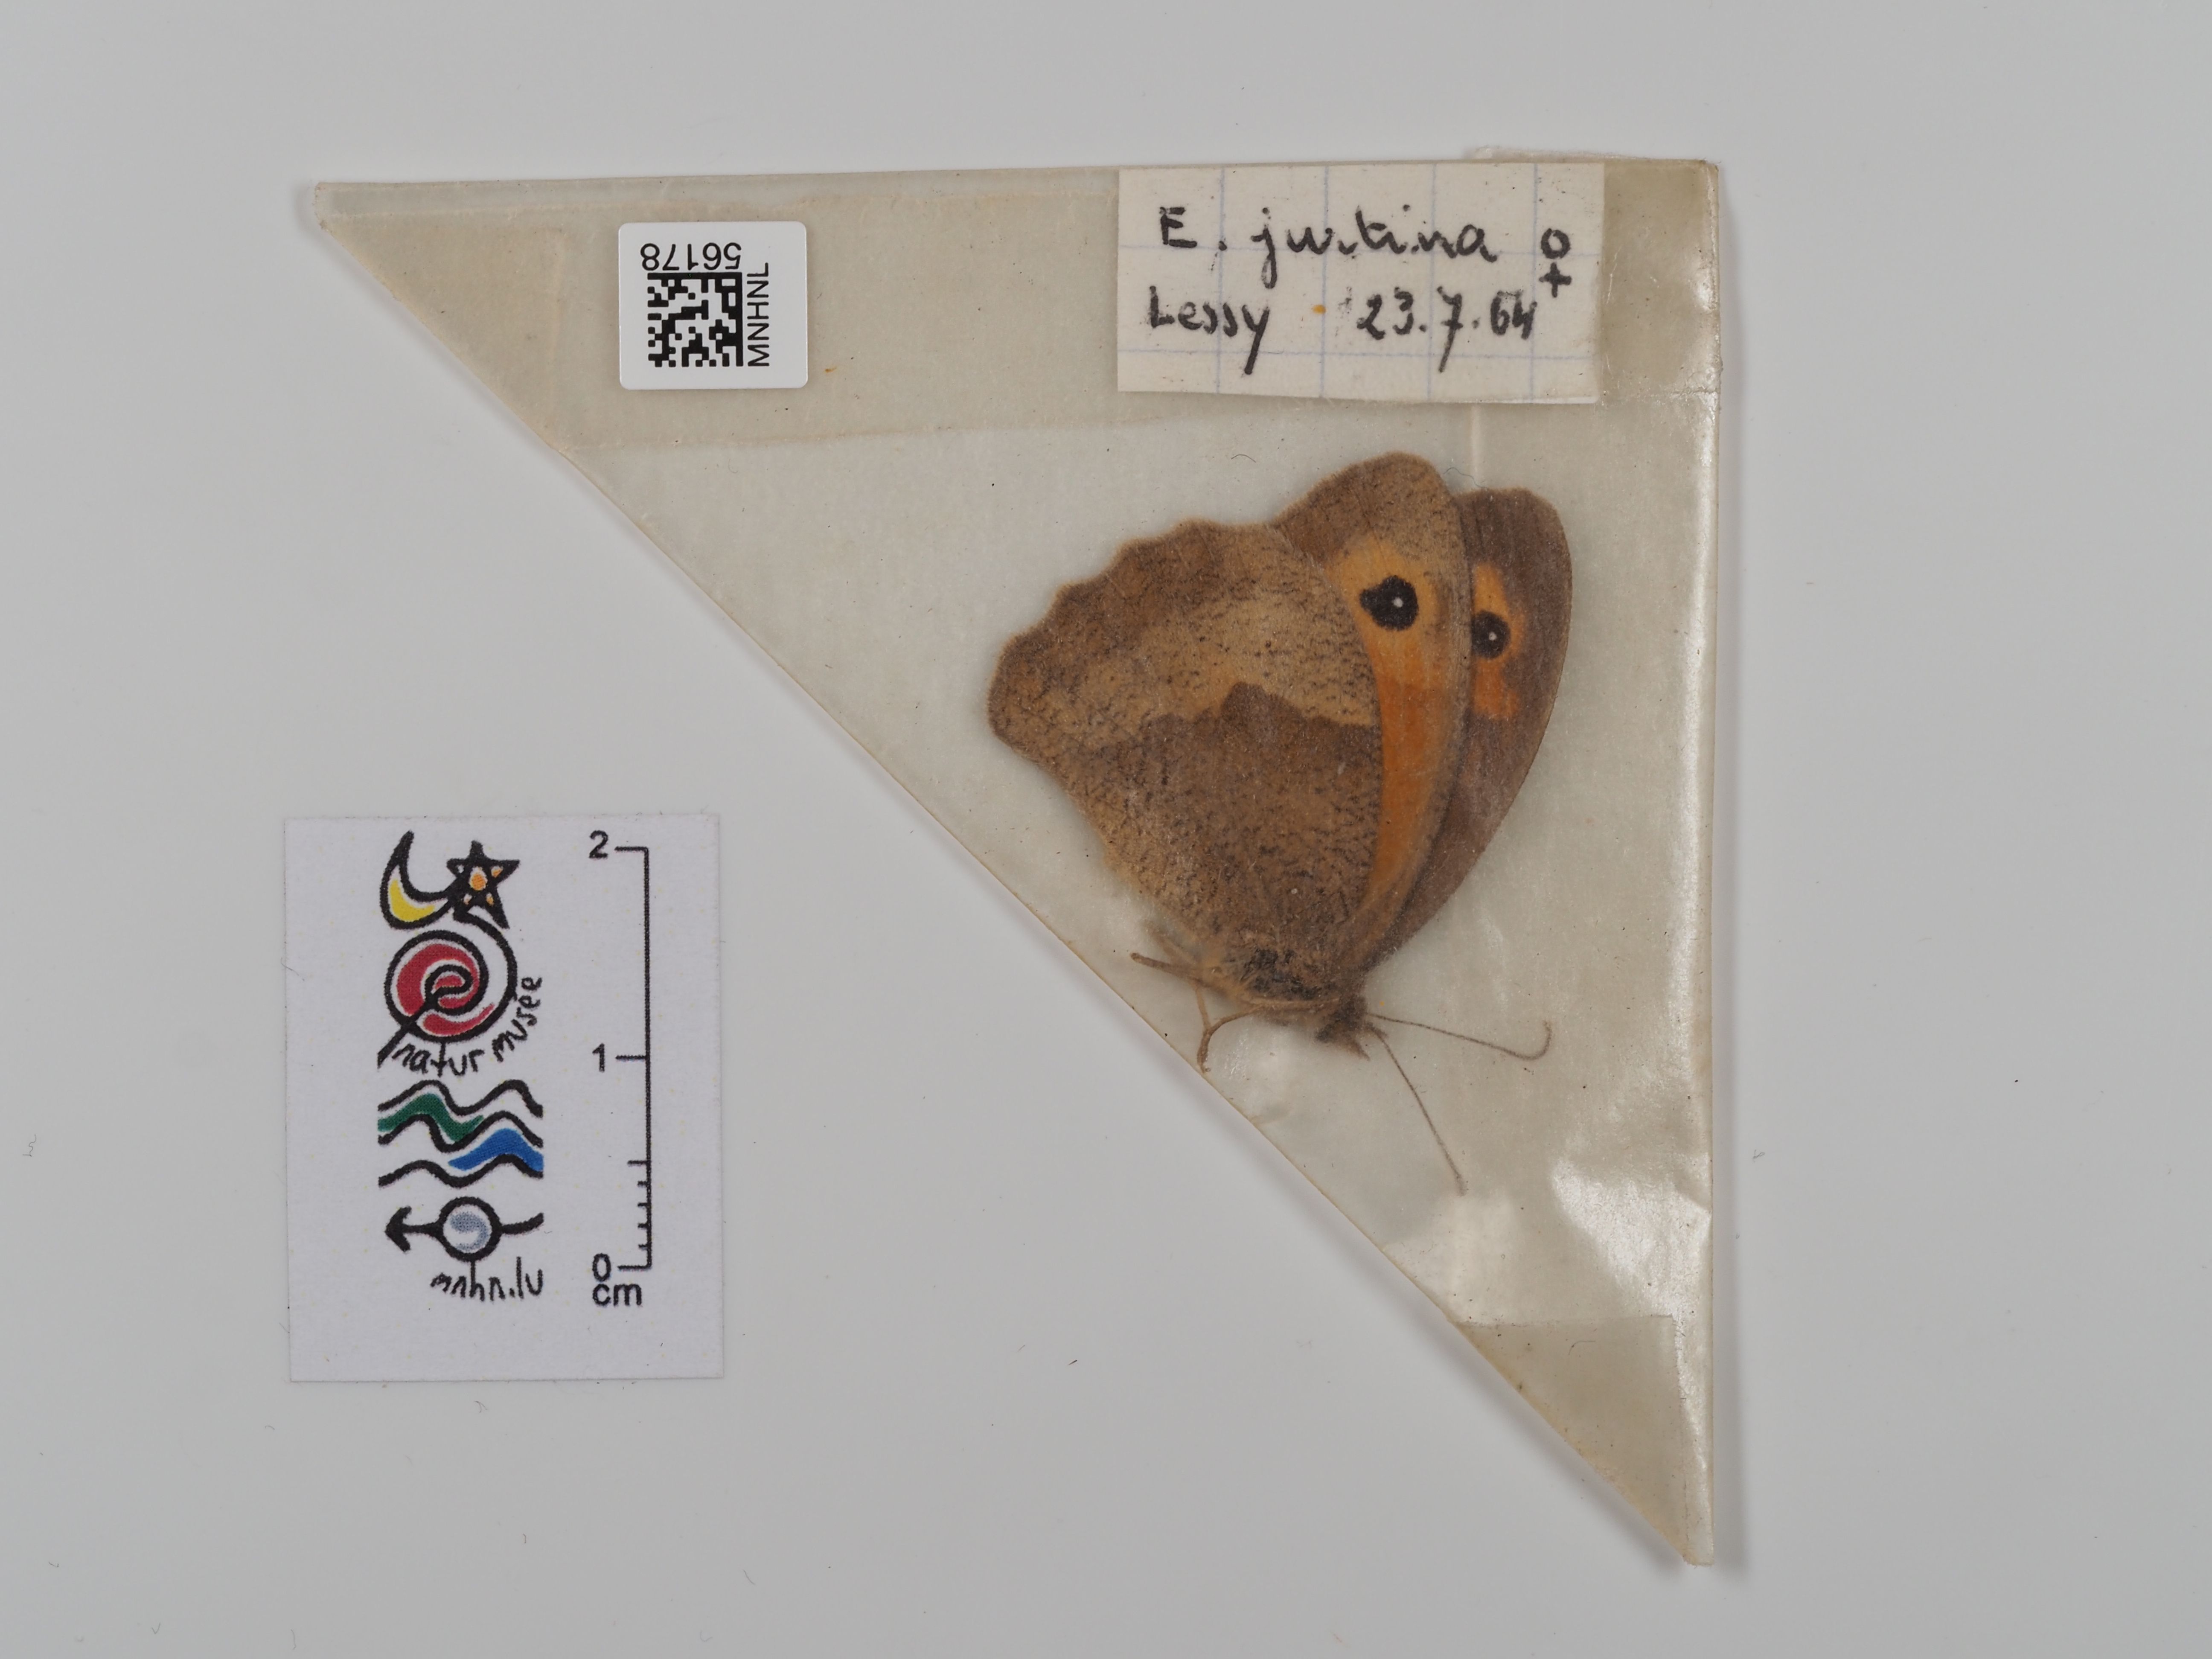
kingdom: Animalia
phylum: Arthropoda
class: Insecta
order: Lepidoptera
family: Nymphalidae
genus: Maniola
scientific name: Maniola jurtina
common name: Meadow brown
